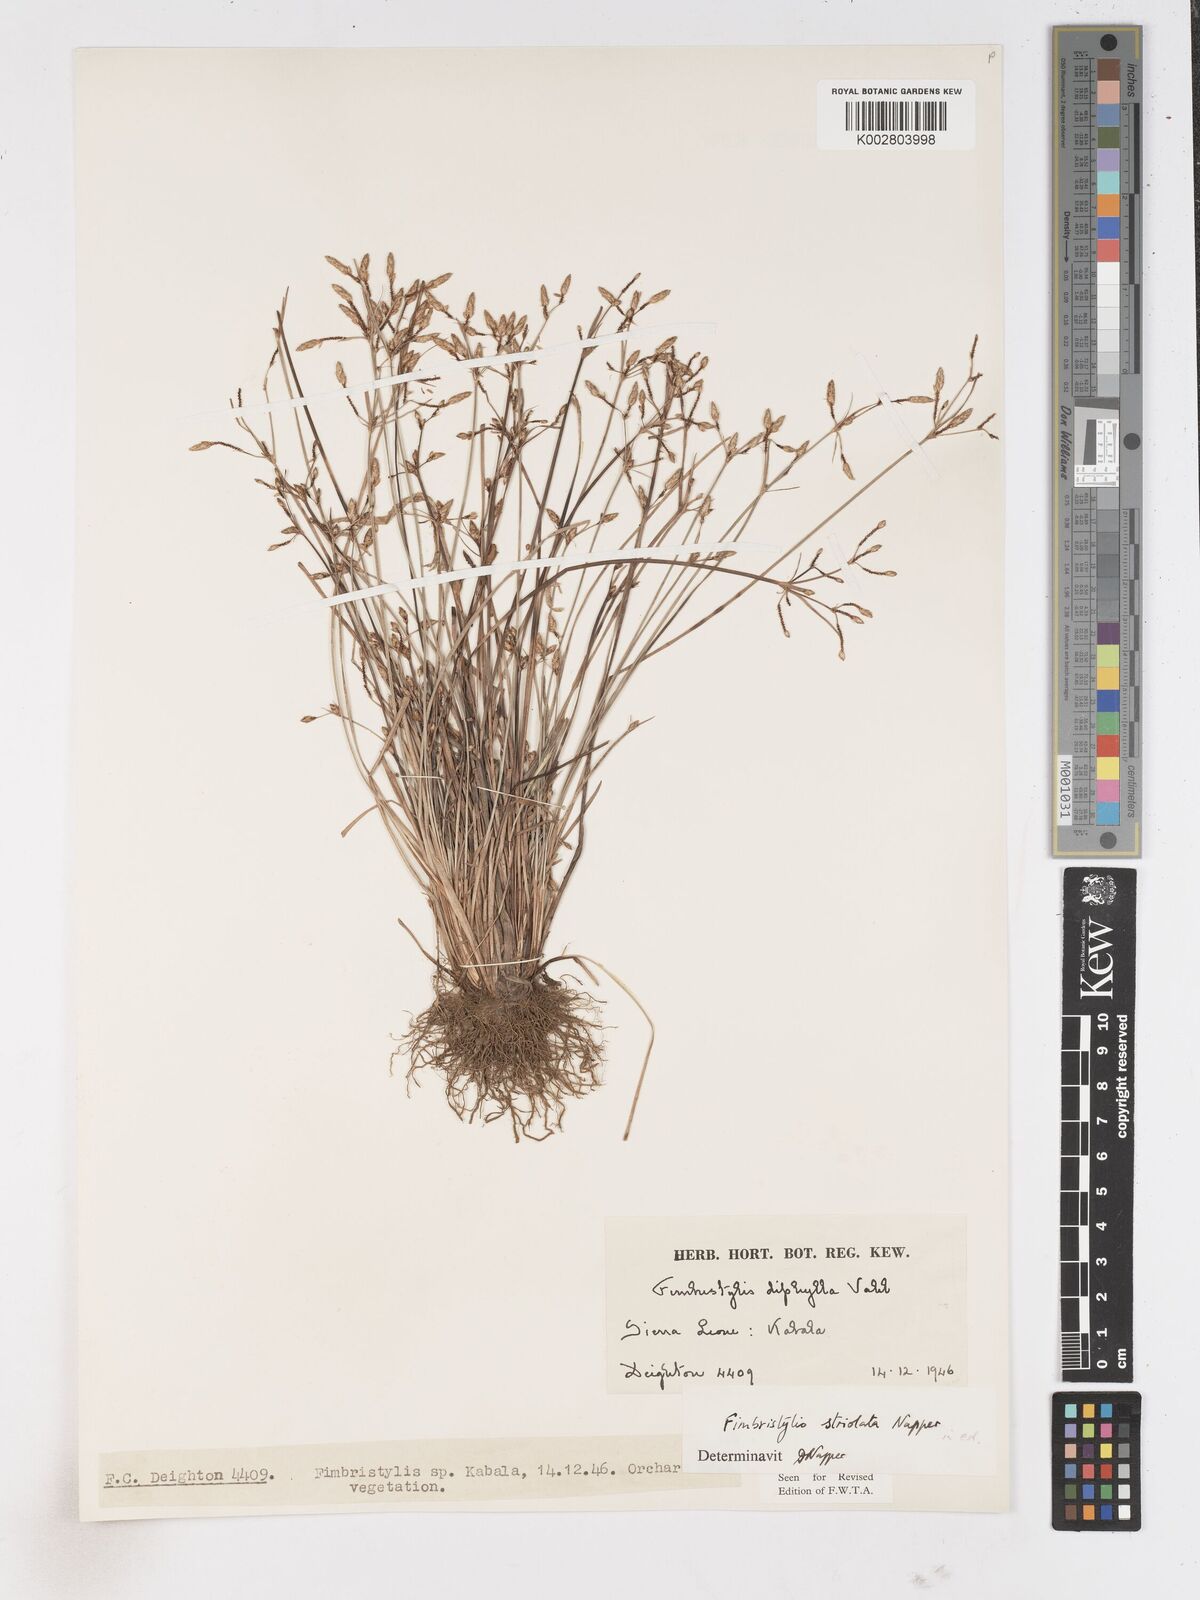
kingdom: Plantae
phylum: Tracheophyta
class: Liliopsida
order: Poales
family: Cyperaceae
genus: Fimbristylis
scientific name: Fimbristylis striolata
